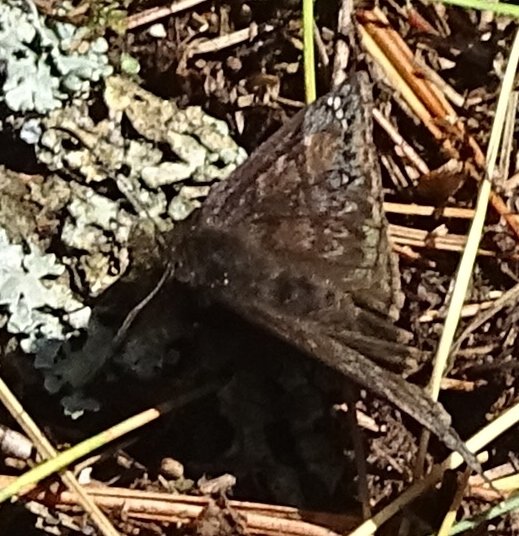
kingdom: Animalia
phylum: Arthropoda
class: Insecta
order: Lepidoptera
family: Hesperiidae
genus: Gesta
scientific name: Gesta
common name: Juvenal's Duskywing
